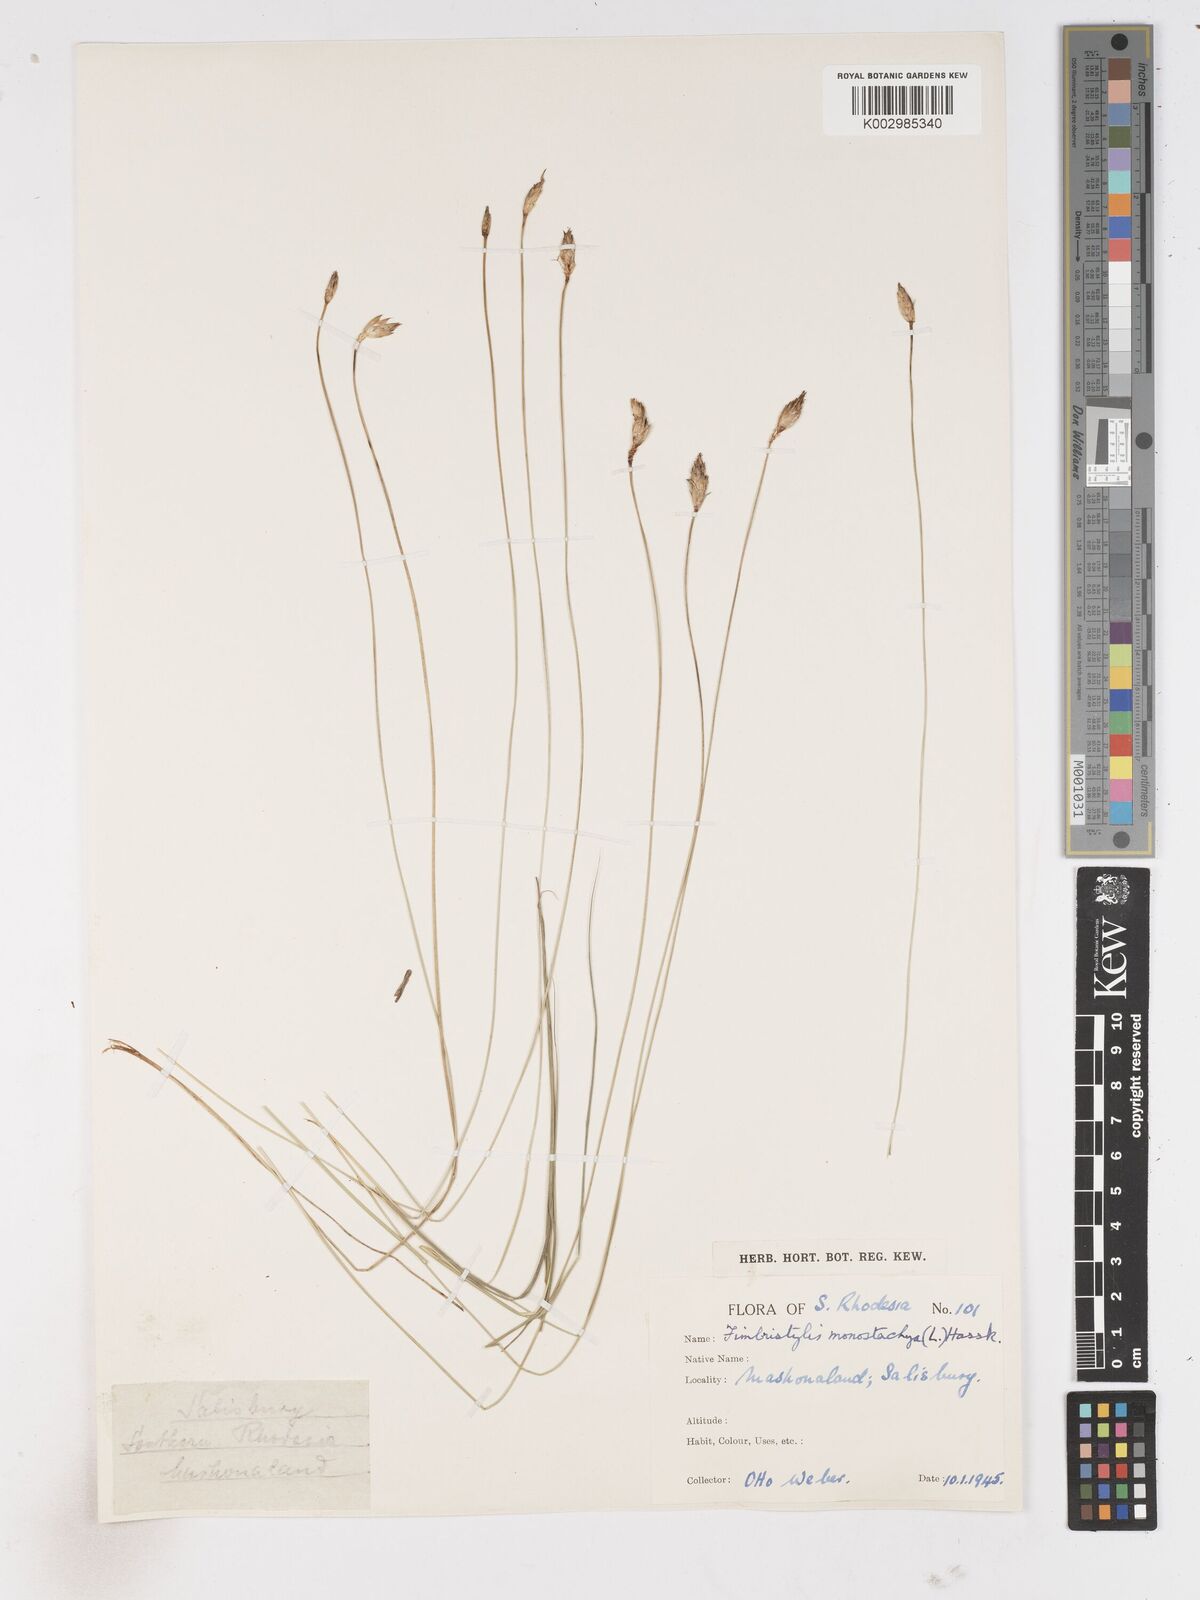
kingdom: Plantae
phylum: Tracheophyta
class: Liliopsida
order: Poales
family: Cyperaceae
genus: Abildgaardia
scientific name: Abildgaardia ovata
